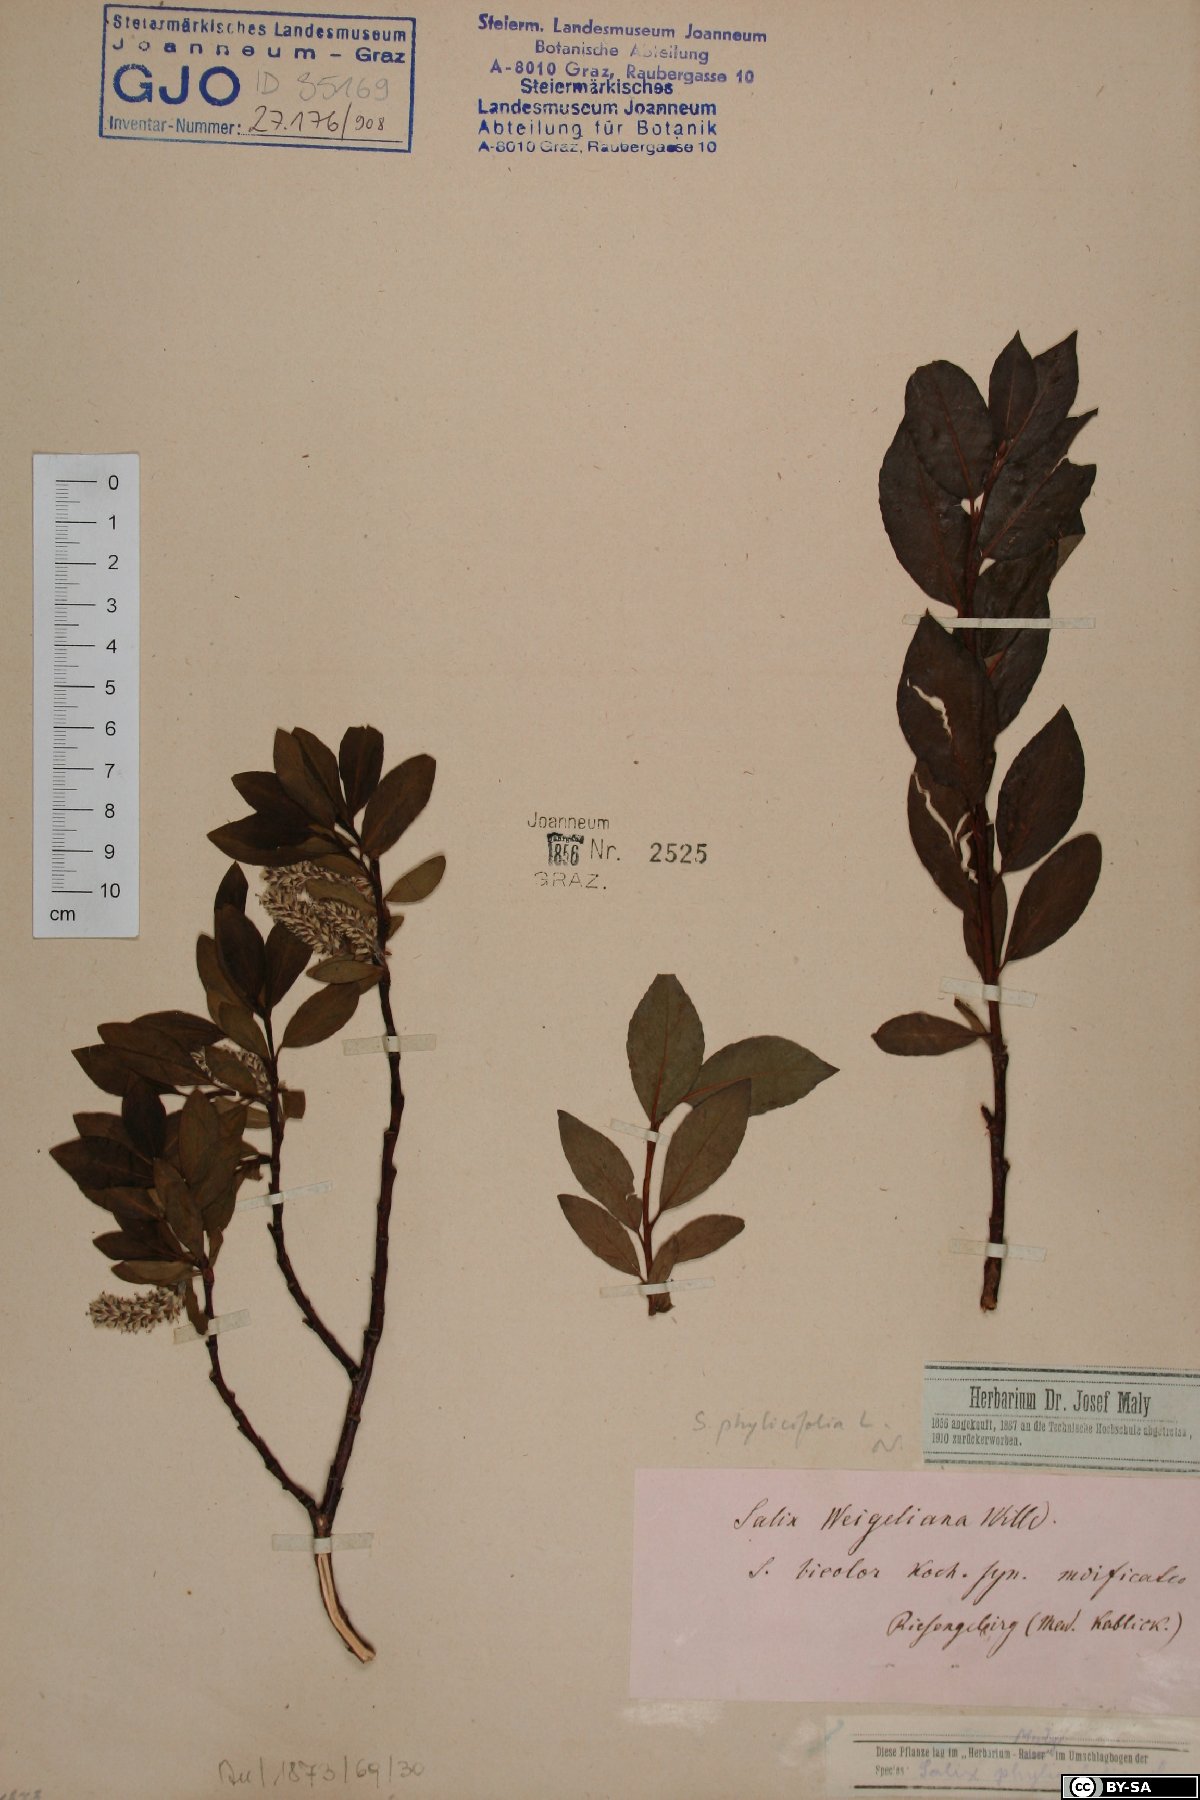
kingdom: Plantae
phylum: Tracheophyta
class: Magnoliopsida
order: Malpighiales
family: Salicaceae
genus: Salix
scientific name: Salix phylicifolia
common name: Tea-leaved willow
